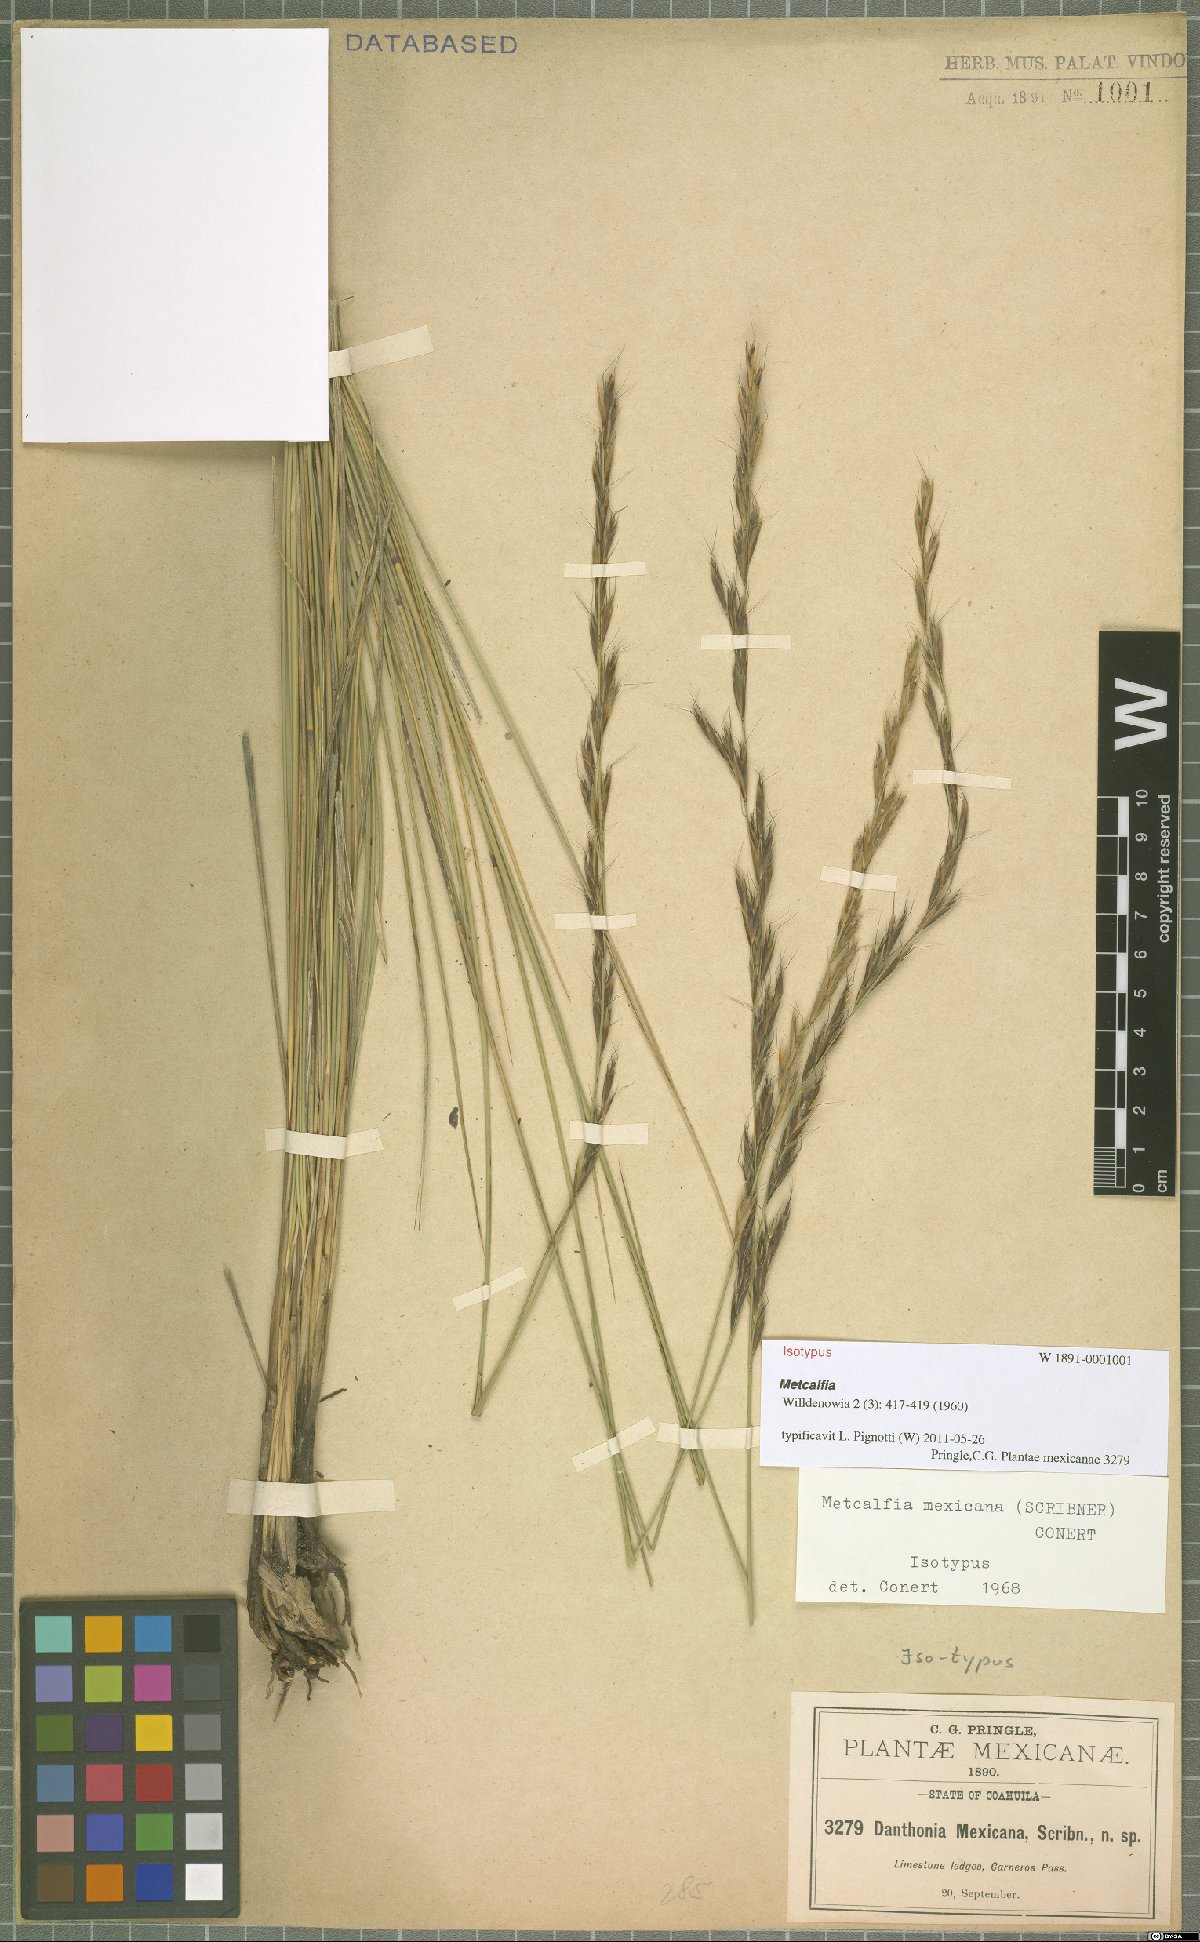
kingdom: Plantae
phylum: Tracheophyta
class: Liliopsida
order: Poales
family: Poaceae
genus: Metcalfia
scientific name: Metcalfia mexicana
